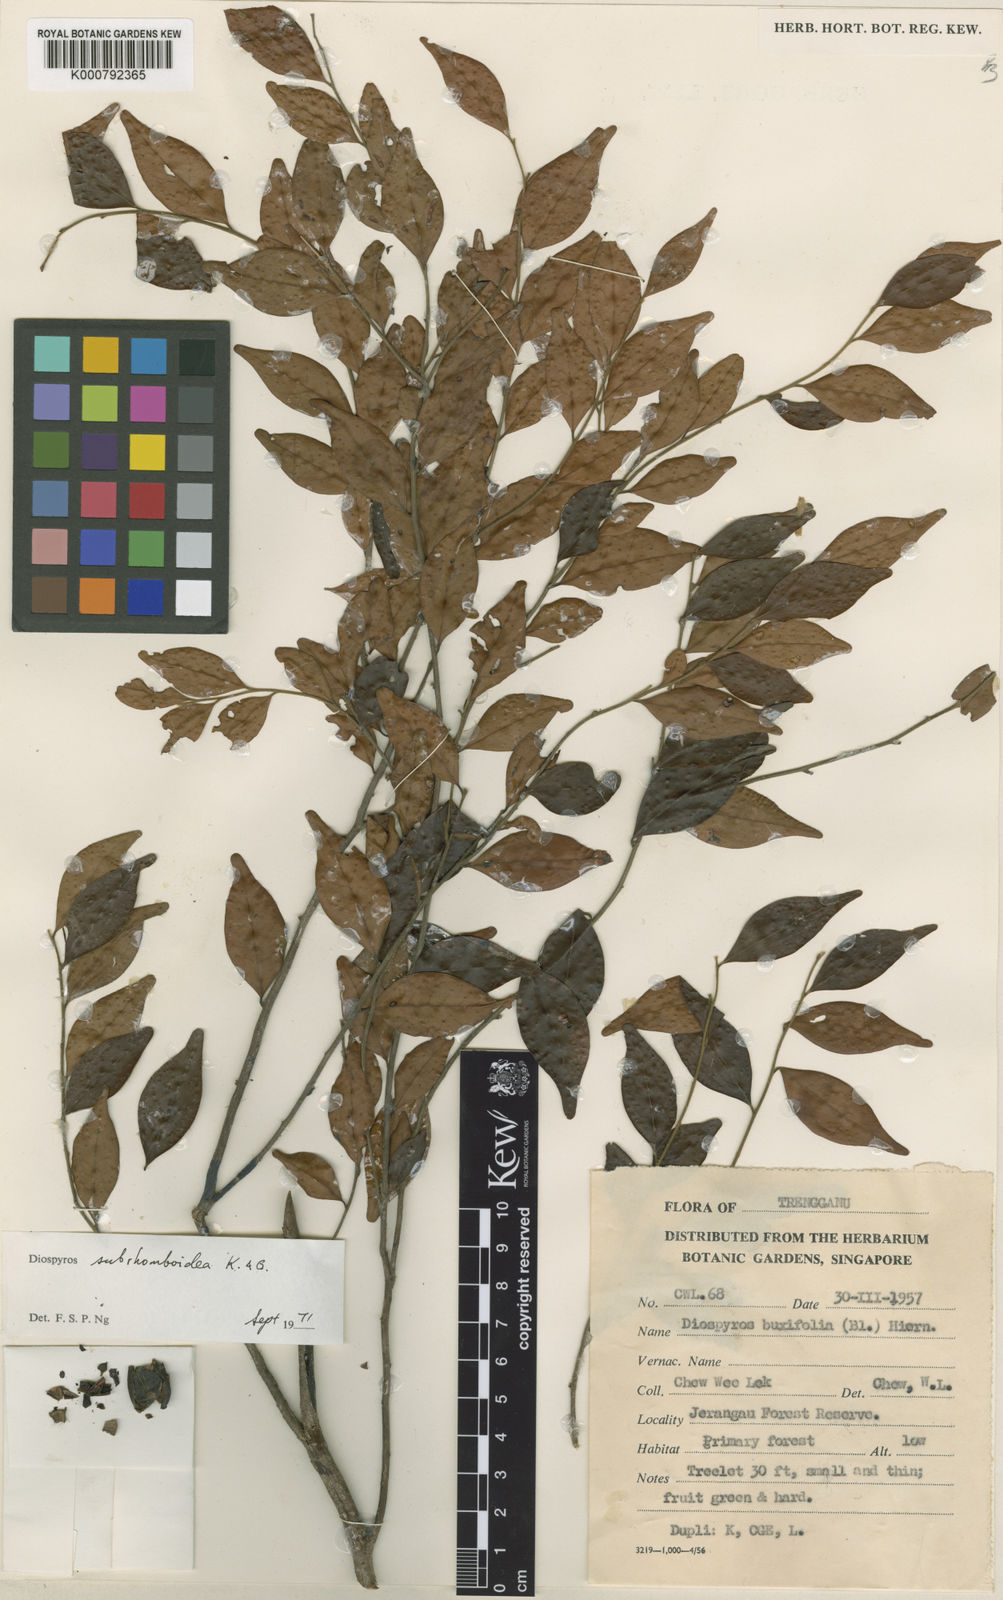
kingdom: Plantae
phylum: Tracheophyta
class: Magnoliopsida
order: Ericales
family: Ebenaceae
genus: Diospyros
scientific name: Diospyros subrhomboidea
